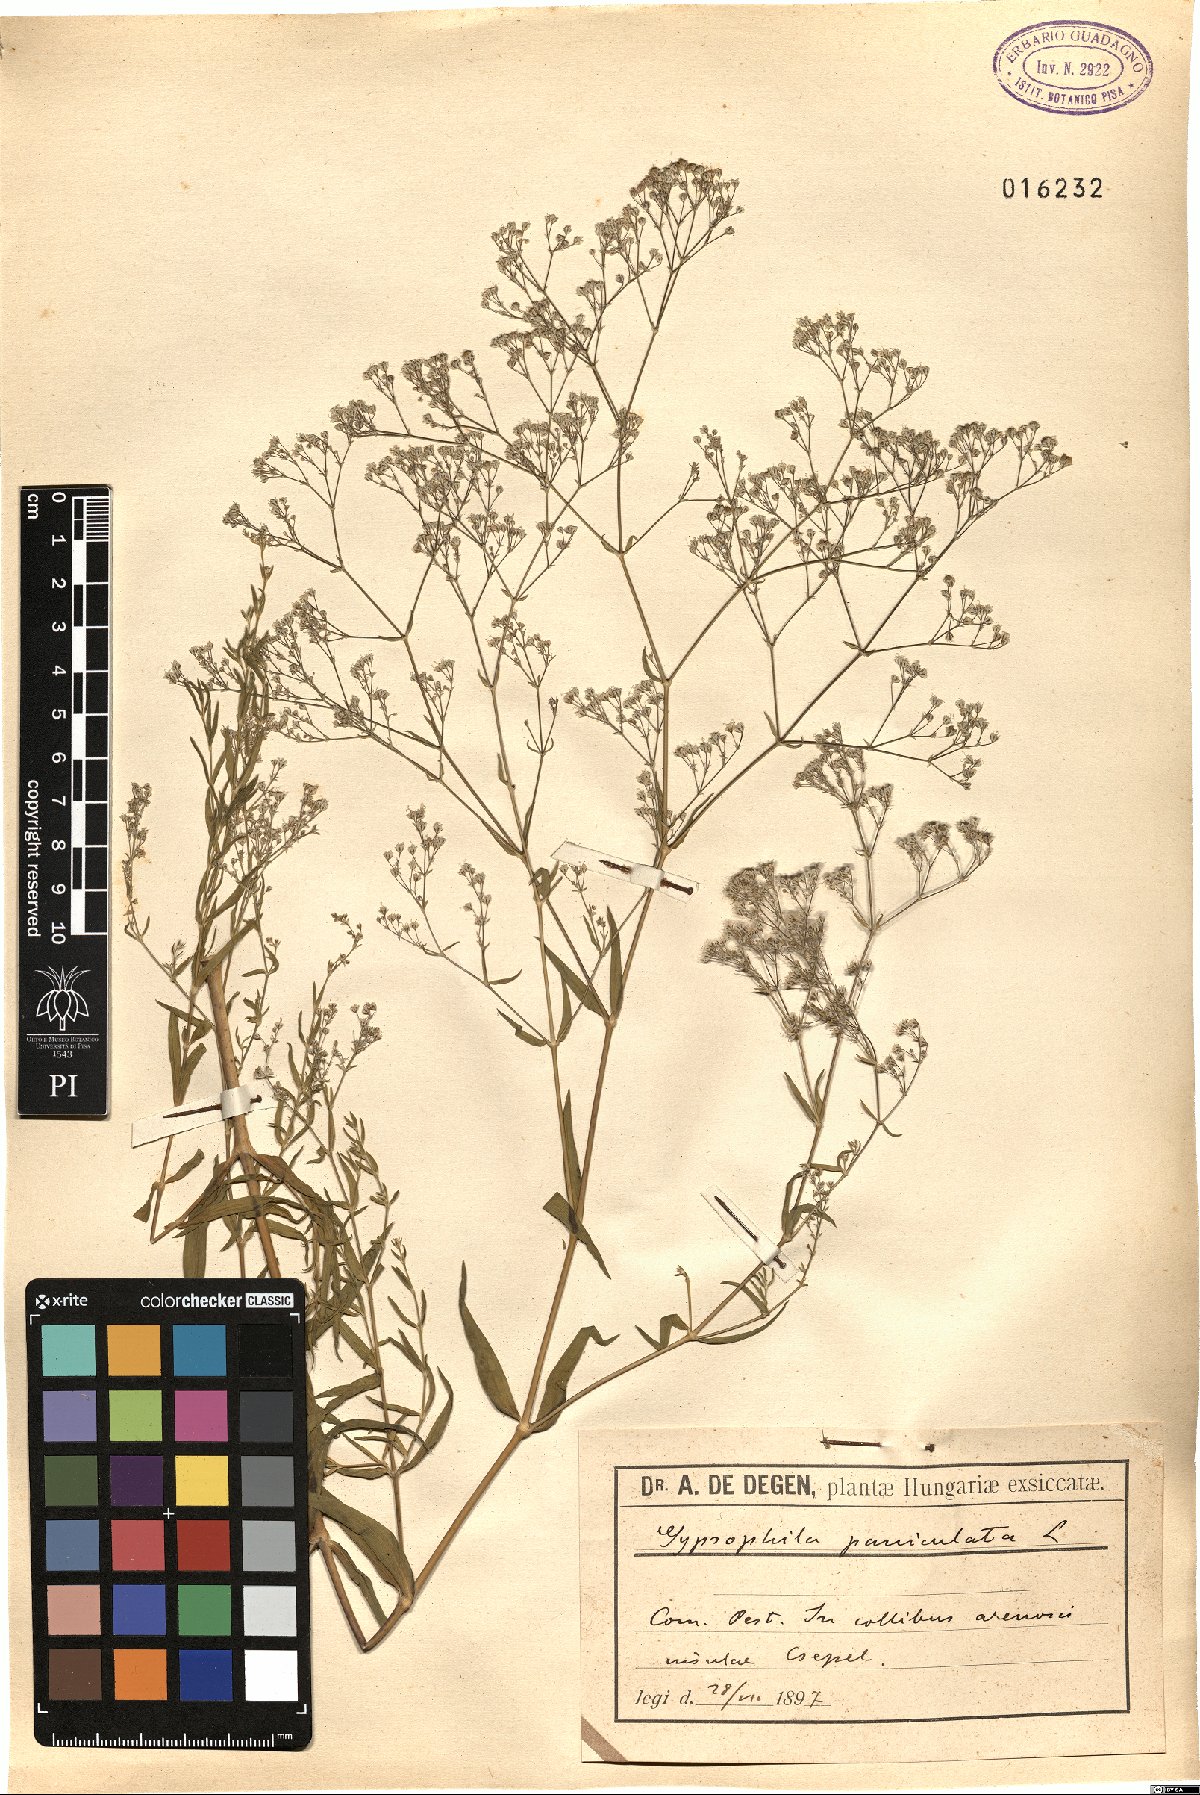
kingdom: Plantae
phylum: Tracheophyta
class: Magnoliopsida
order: Caryophyllales
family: Caryophyllaceae
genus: Gypsophila
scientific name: Gypsophila paniculata
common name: Baby's-breath
